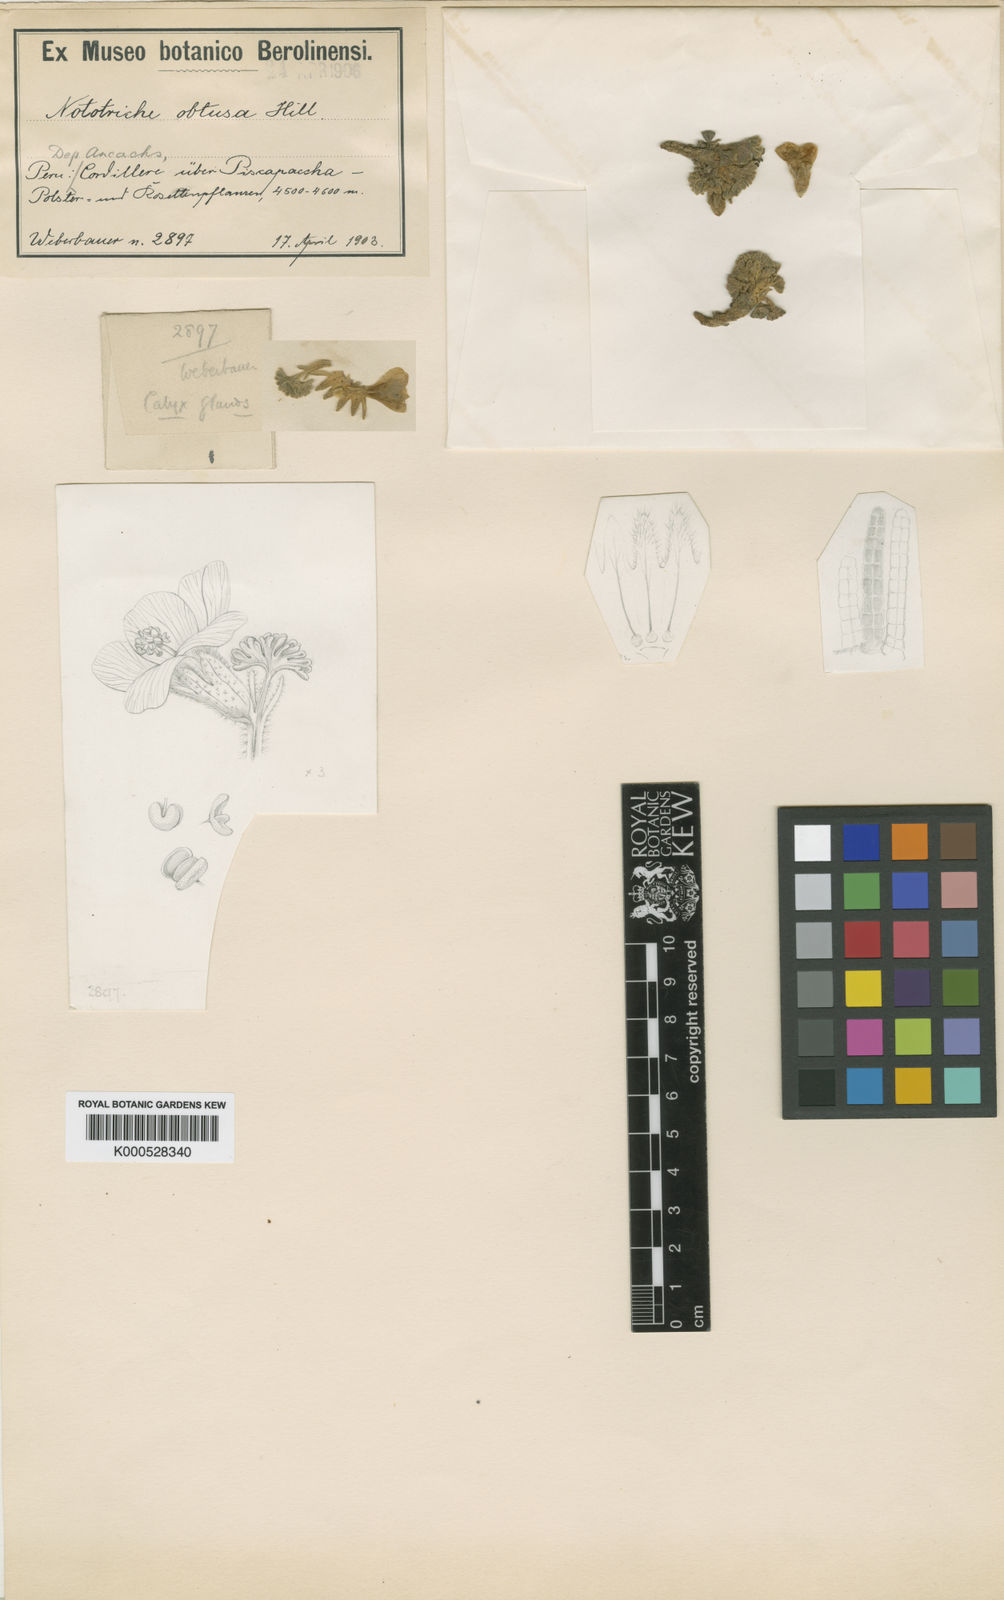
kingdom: Plantae
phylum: Tracheophyta
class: Magnoliopsida
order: Malvales
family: Malvaceae
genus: Nototriche
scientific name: Nototriche obtusa
